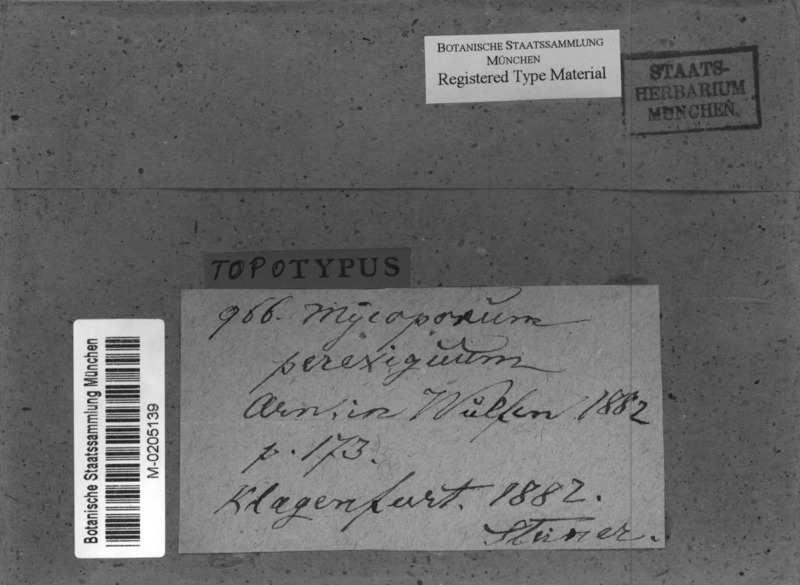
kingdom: Fungi
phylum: Ascomycota
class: Arthoniomycetes
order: Arthoniales
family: Arthoniaceae
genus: Dermatina
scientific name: Dermatina perexigua
